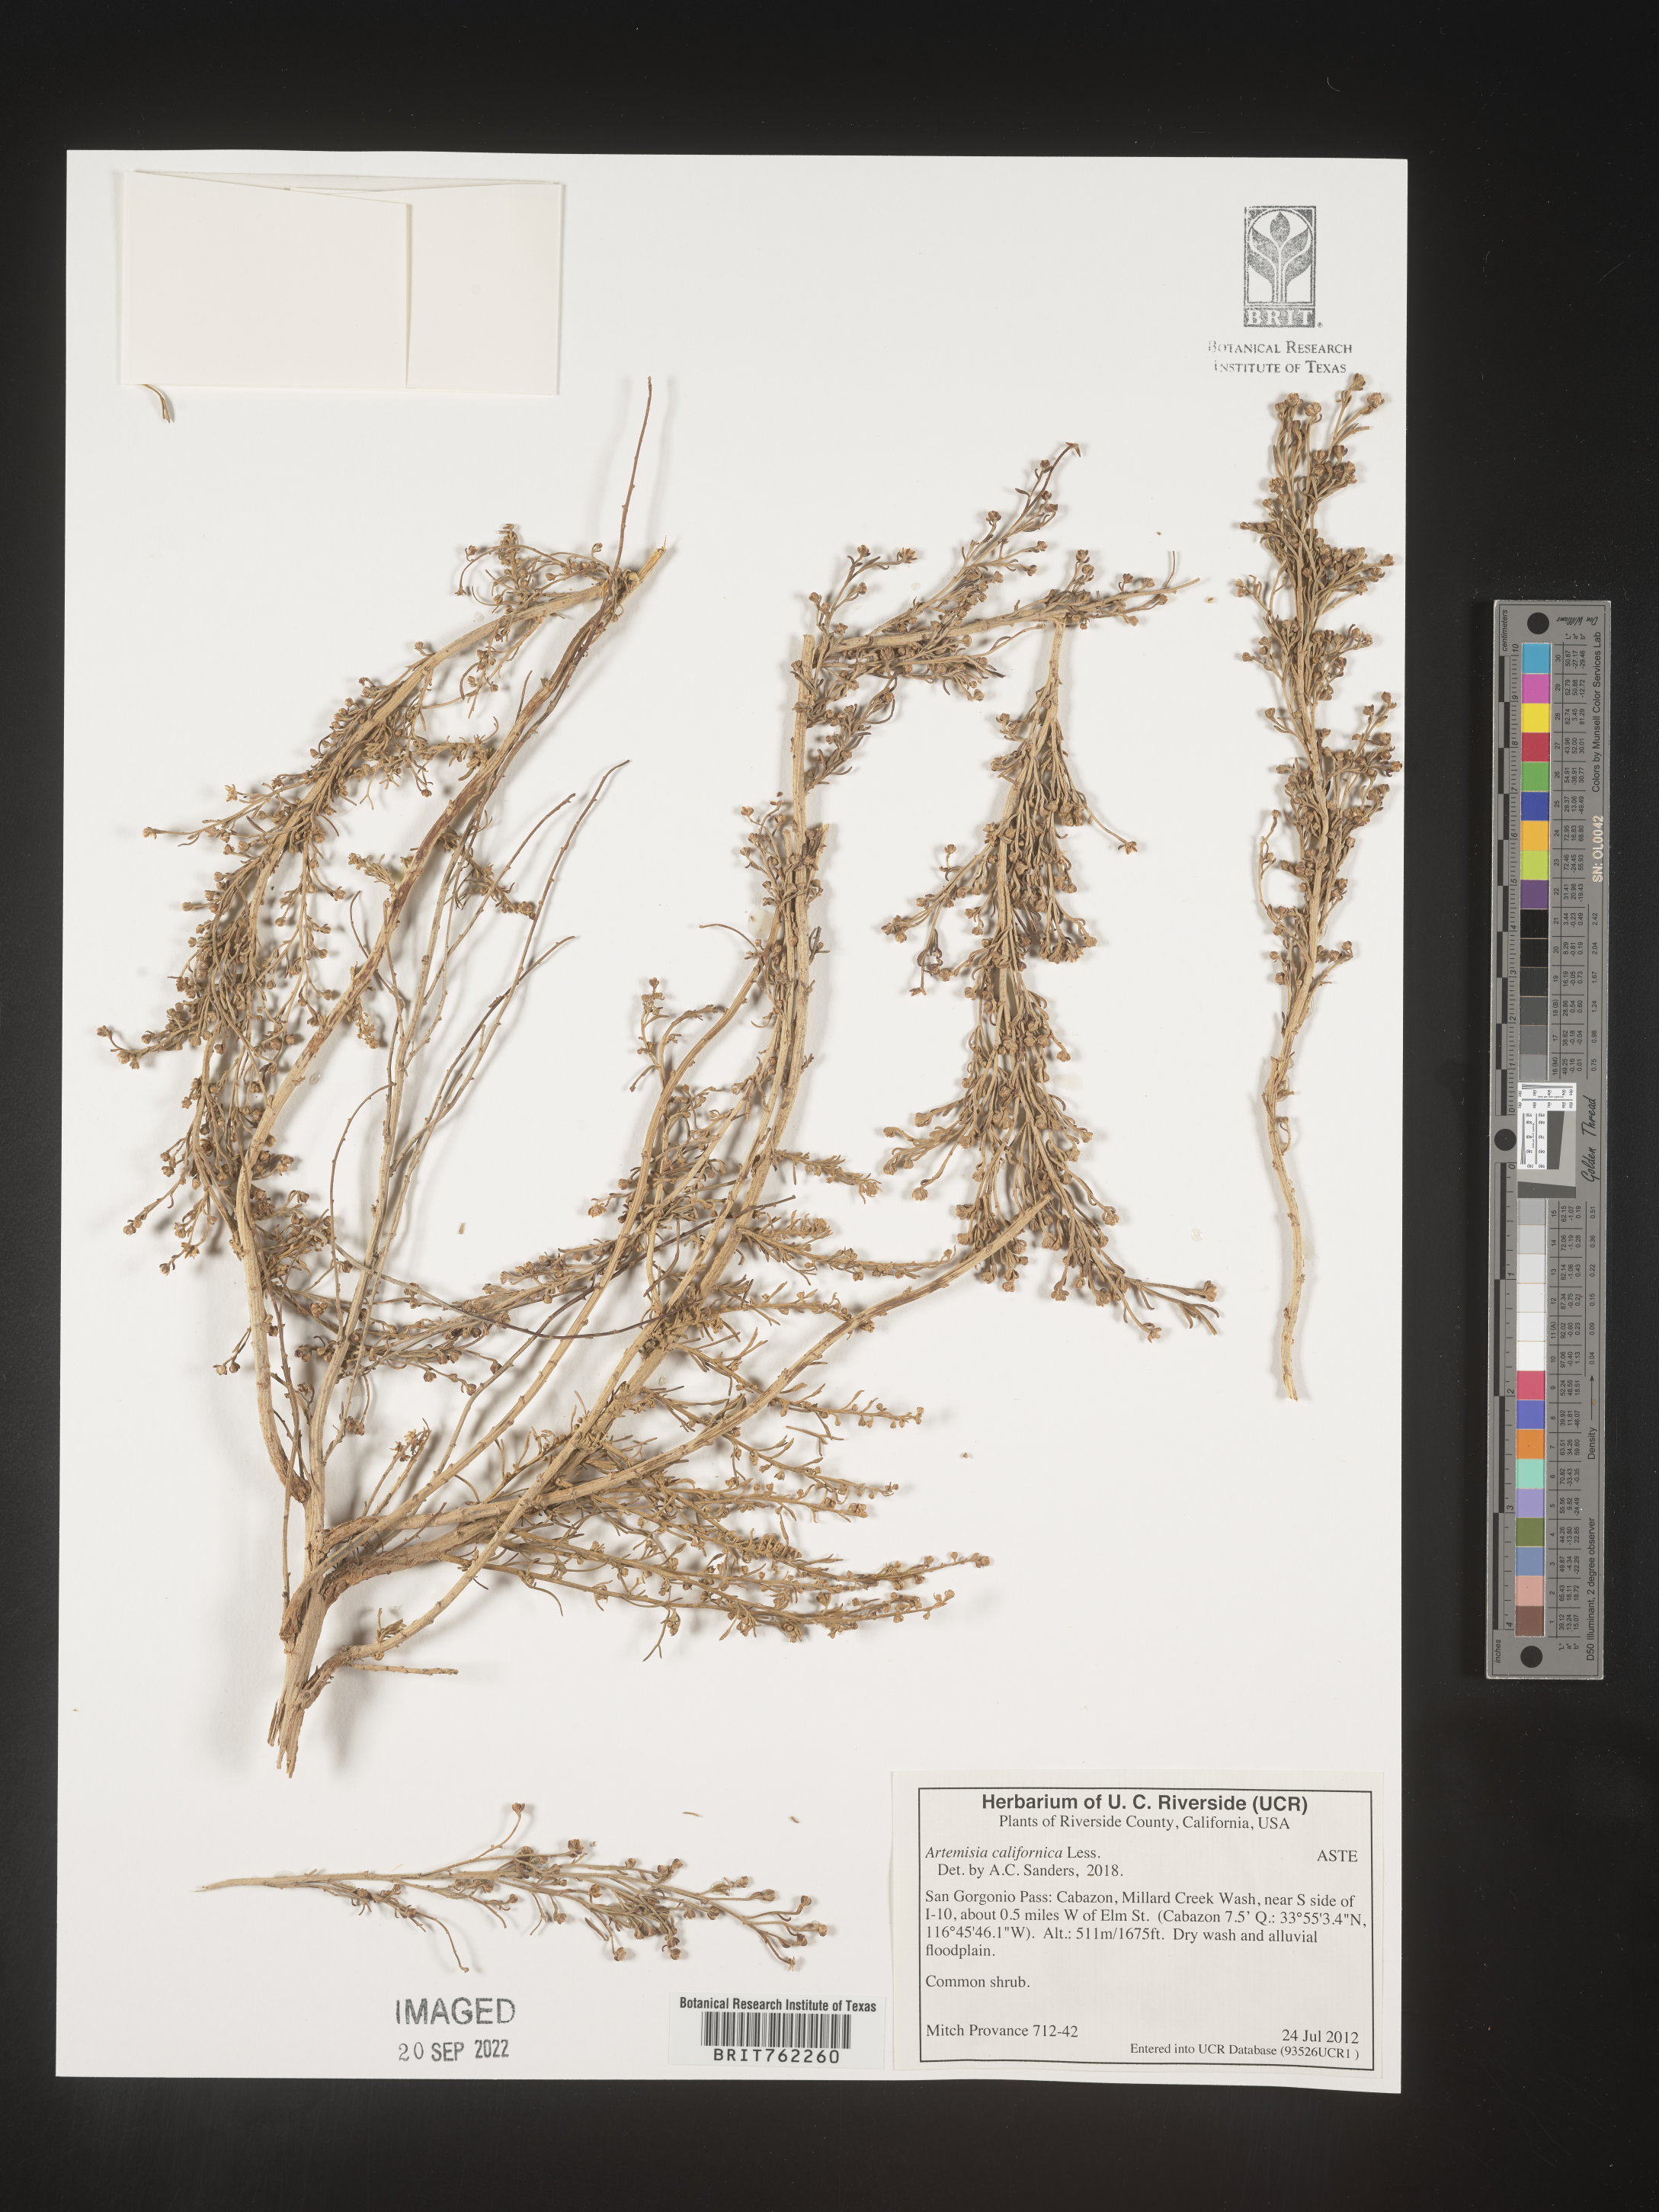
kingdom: Plantae
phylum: Tracheophyta
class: Magnoliopsida
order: Asterales
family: Asteraceae
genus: Artemisia
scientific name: Artemisia
